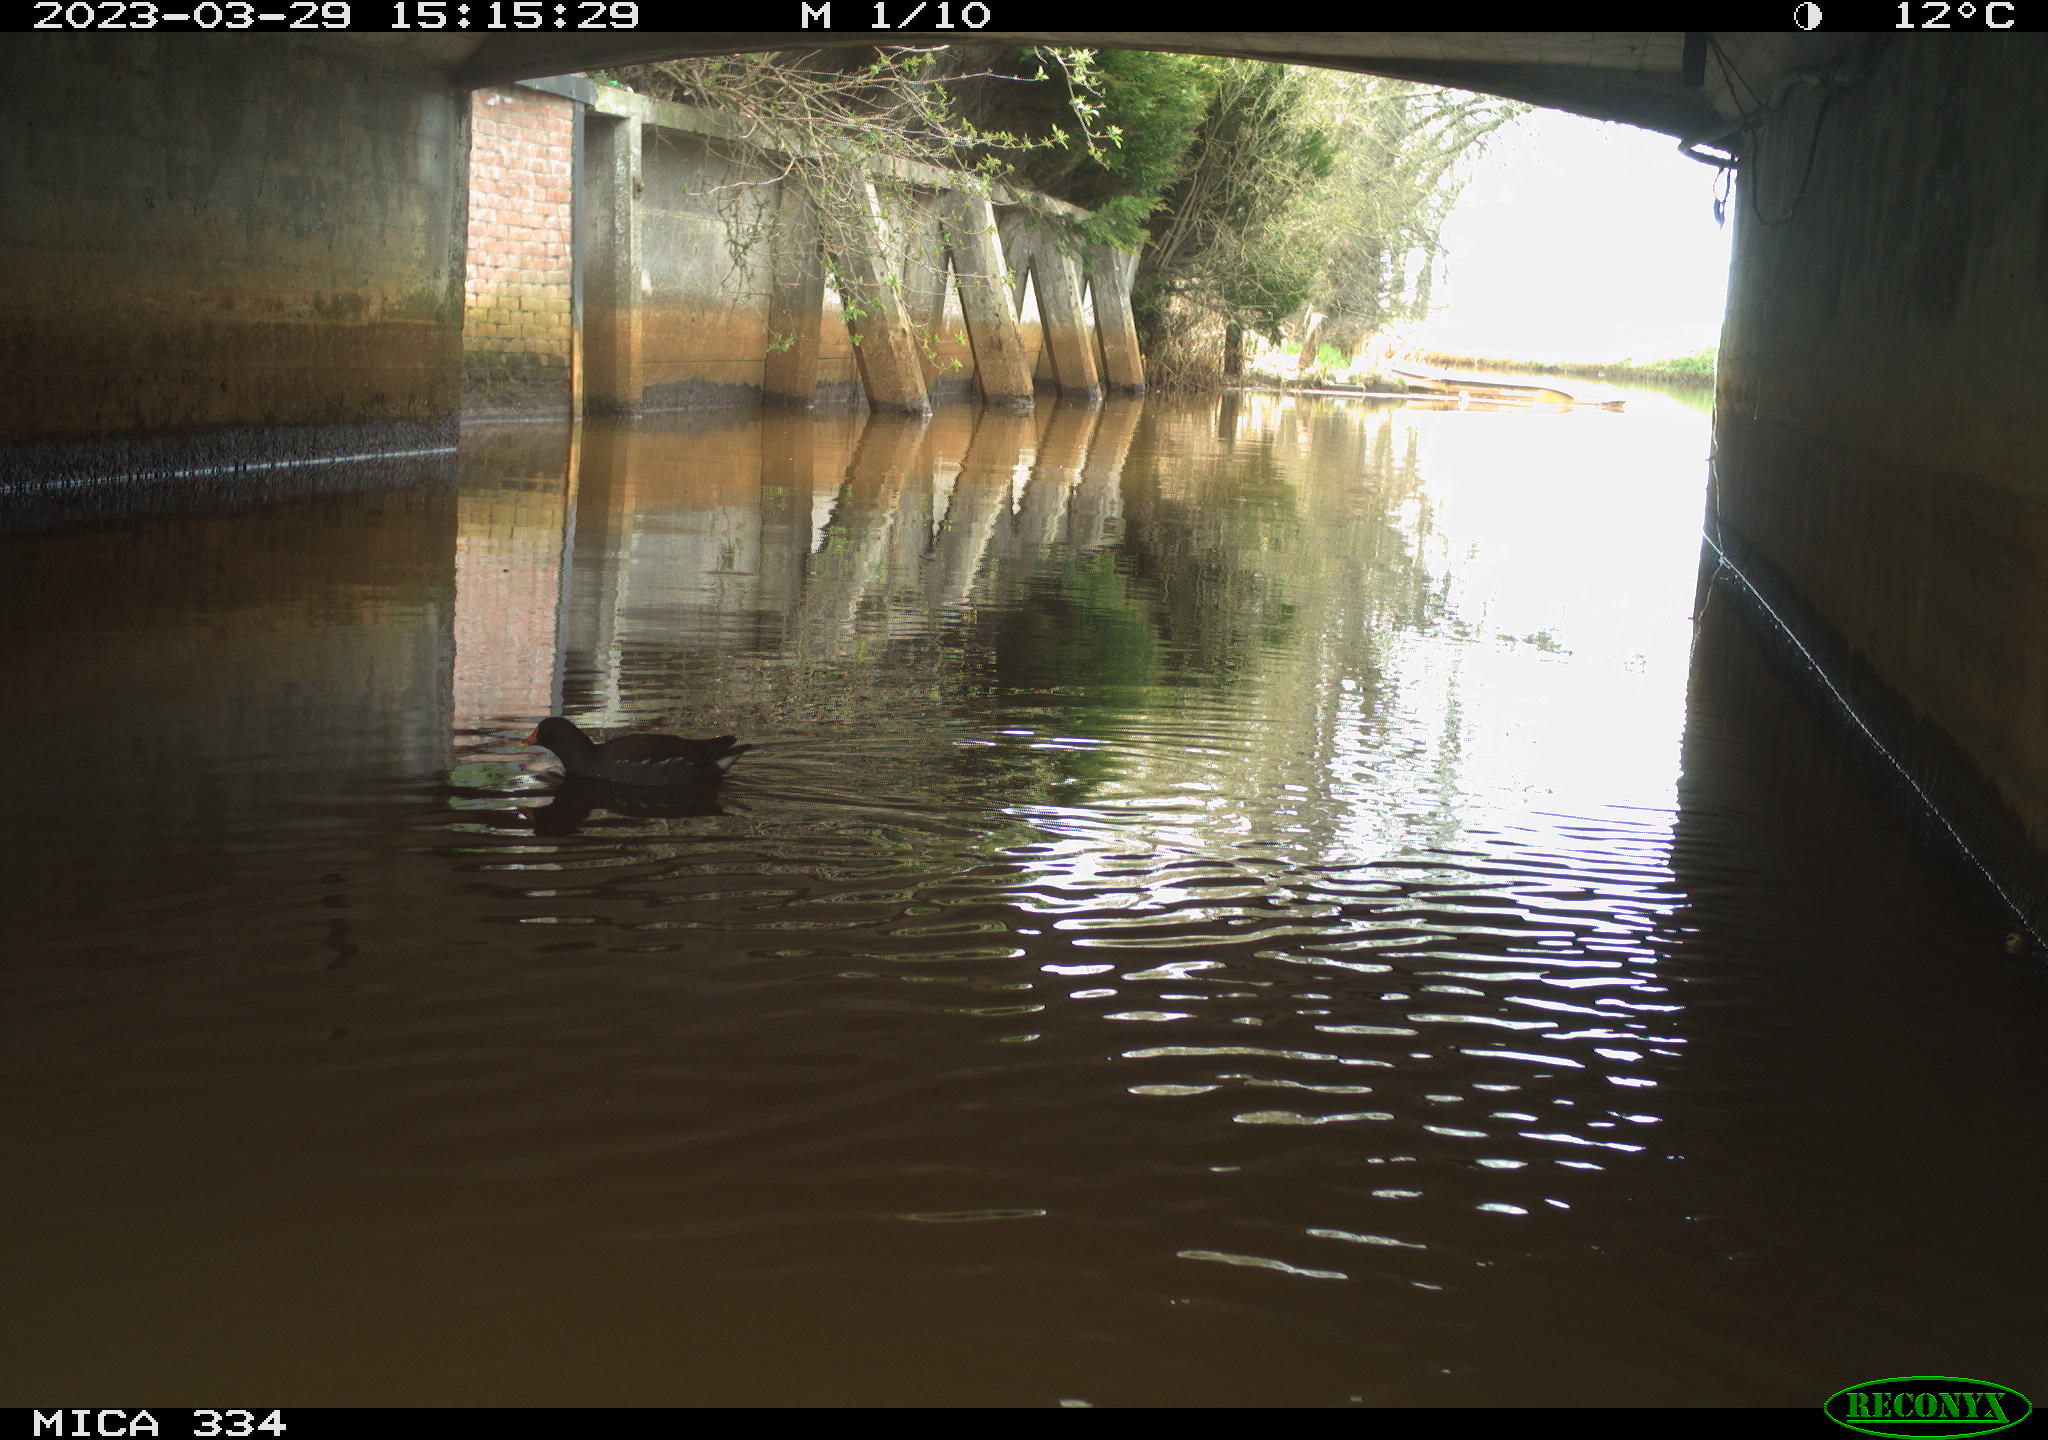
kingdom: Animalia
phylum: Chordata
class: Aves
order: Gruiformes
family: Rallidae
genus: Gallinula
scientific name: Gallinula chloropus
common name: Common moorhen
